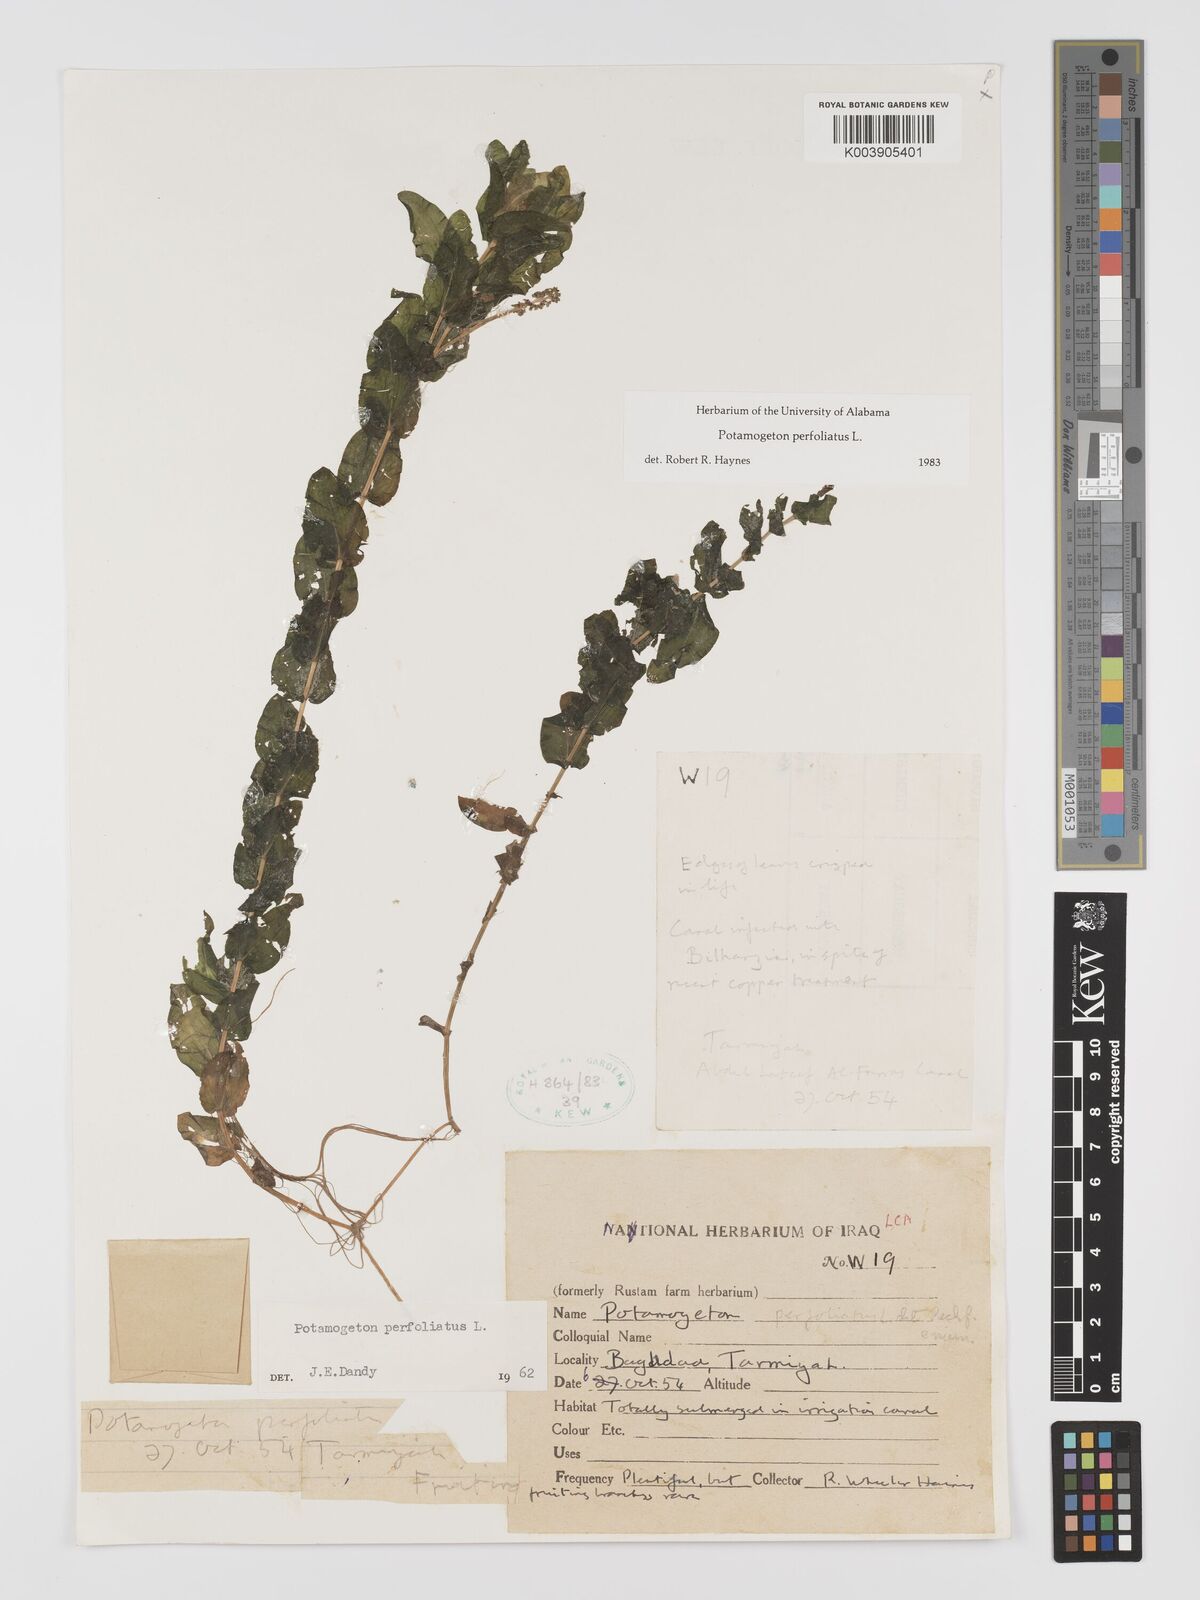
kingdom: Plantae
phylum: Tracheophyta
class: Liliopsida
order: Alismatales
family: Potamogetonaceae
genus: Potamogeton
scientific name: Potamogeton perfoliatus
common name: Perfoliate pondweed
